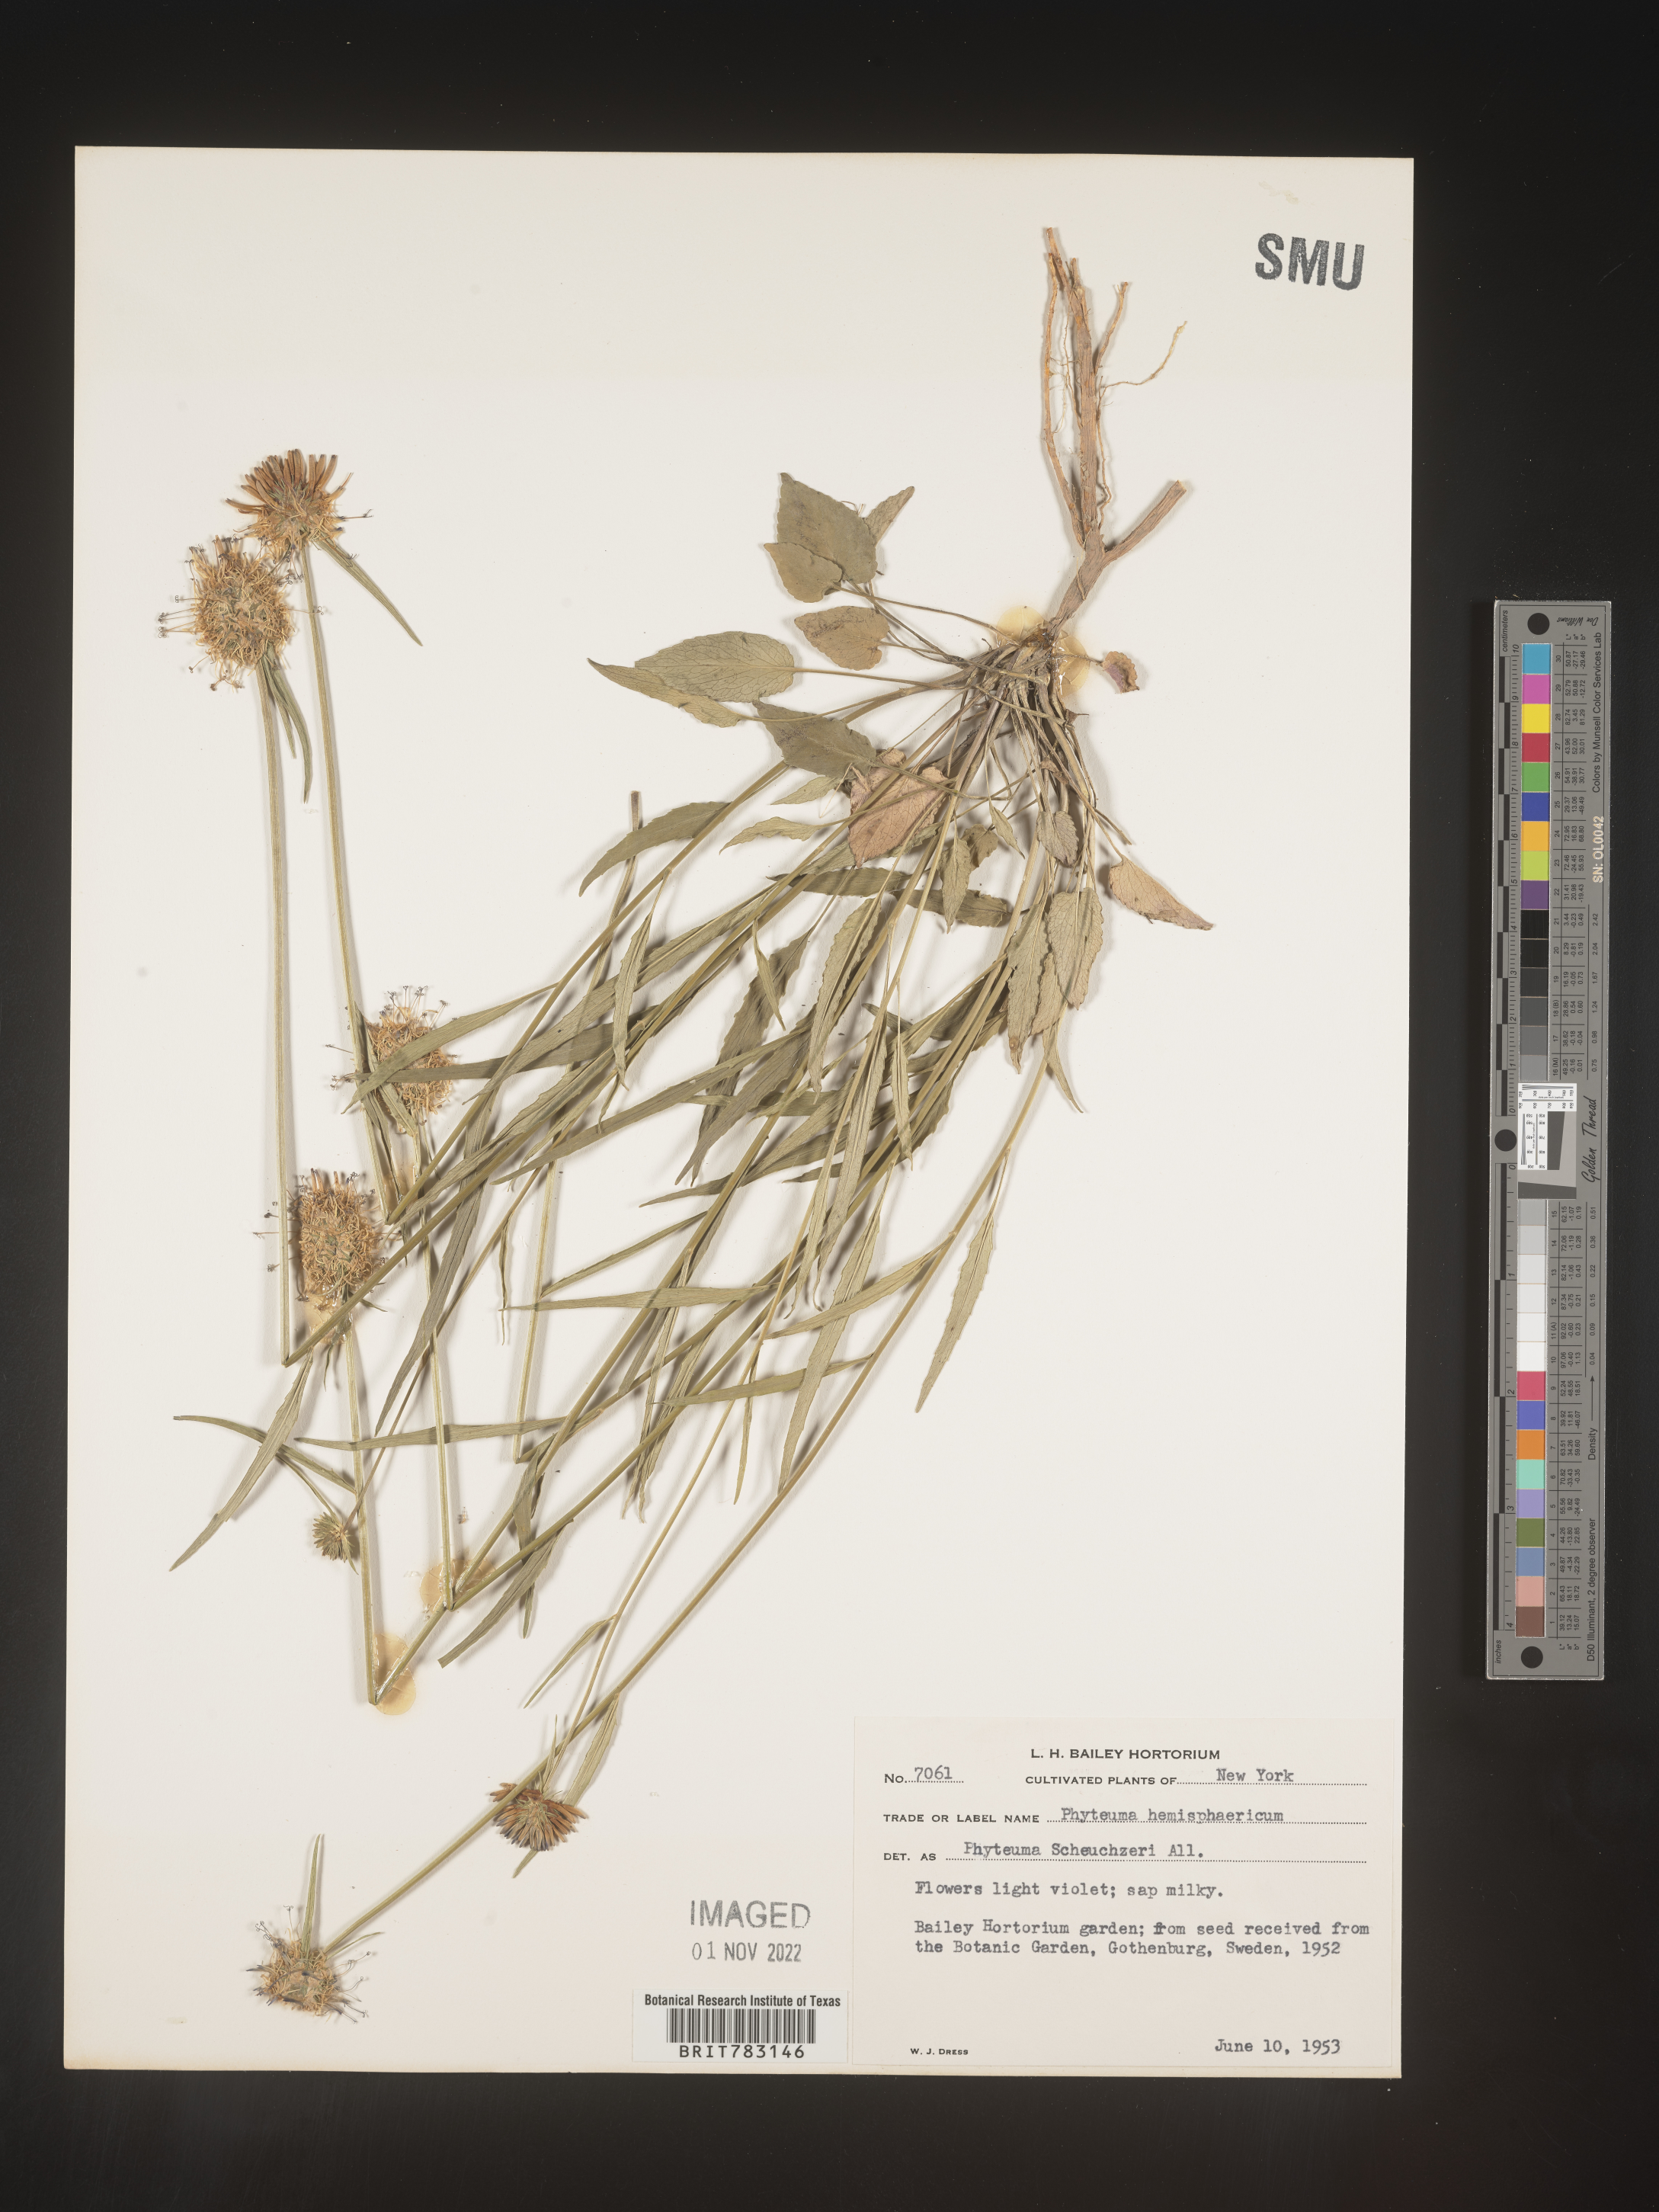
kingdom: Plantae
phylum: Tracheophyta
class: Magnoliopsida
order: Asterales
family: Campanulaceae
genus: Phyteuma
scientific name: Phyteuma
